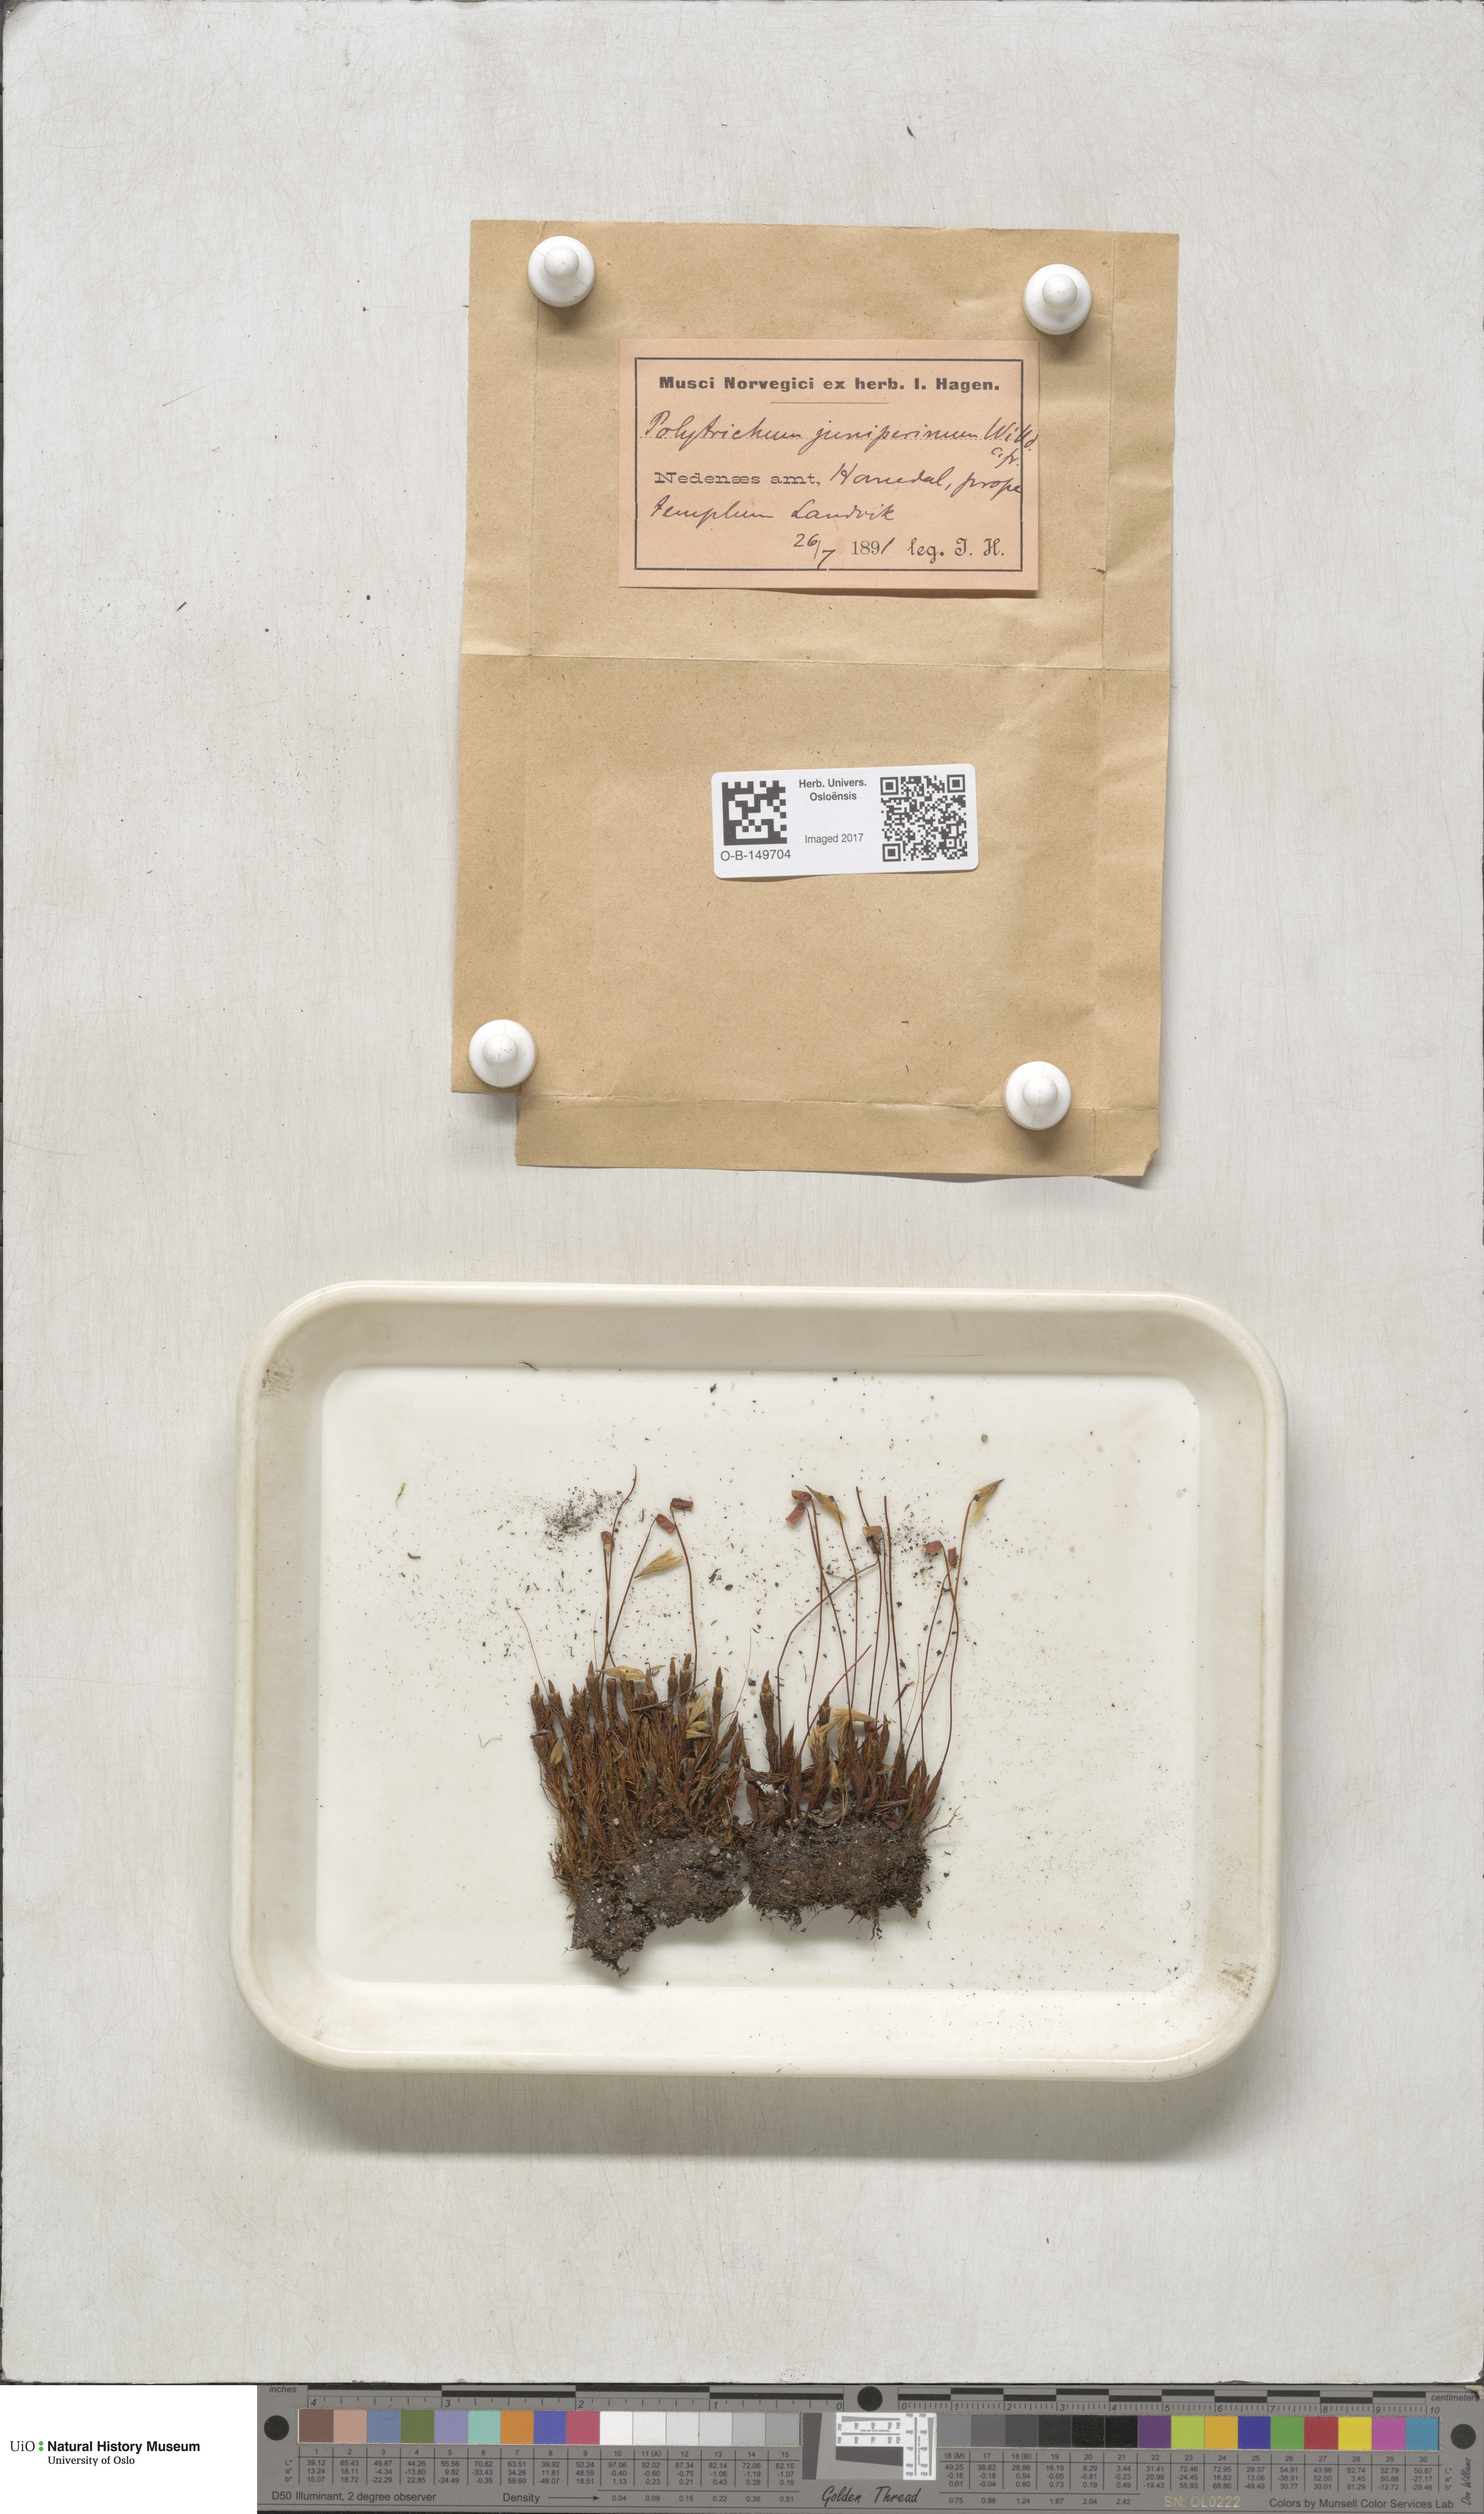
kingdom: Plantae
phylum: Bryophyta
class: Polytrichopsida
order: Polytrichales
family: Polytrichaceae
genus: Polytrichum
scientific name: Polytrichum juniperinum
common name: Juniper haircap moss
